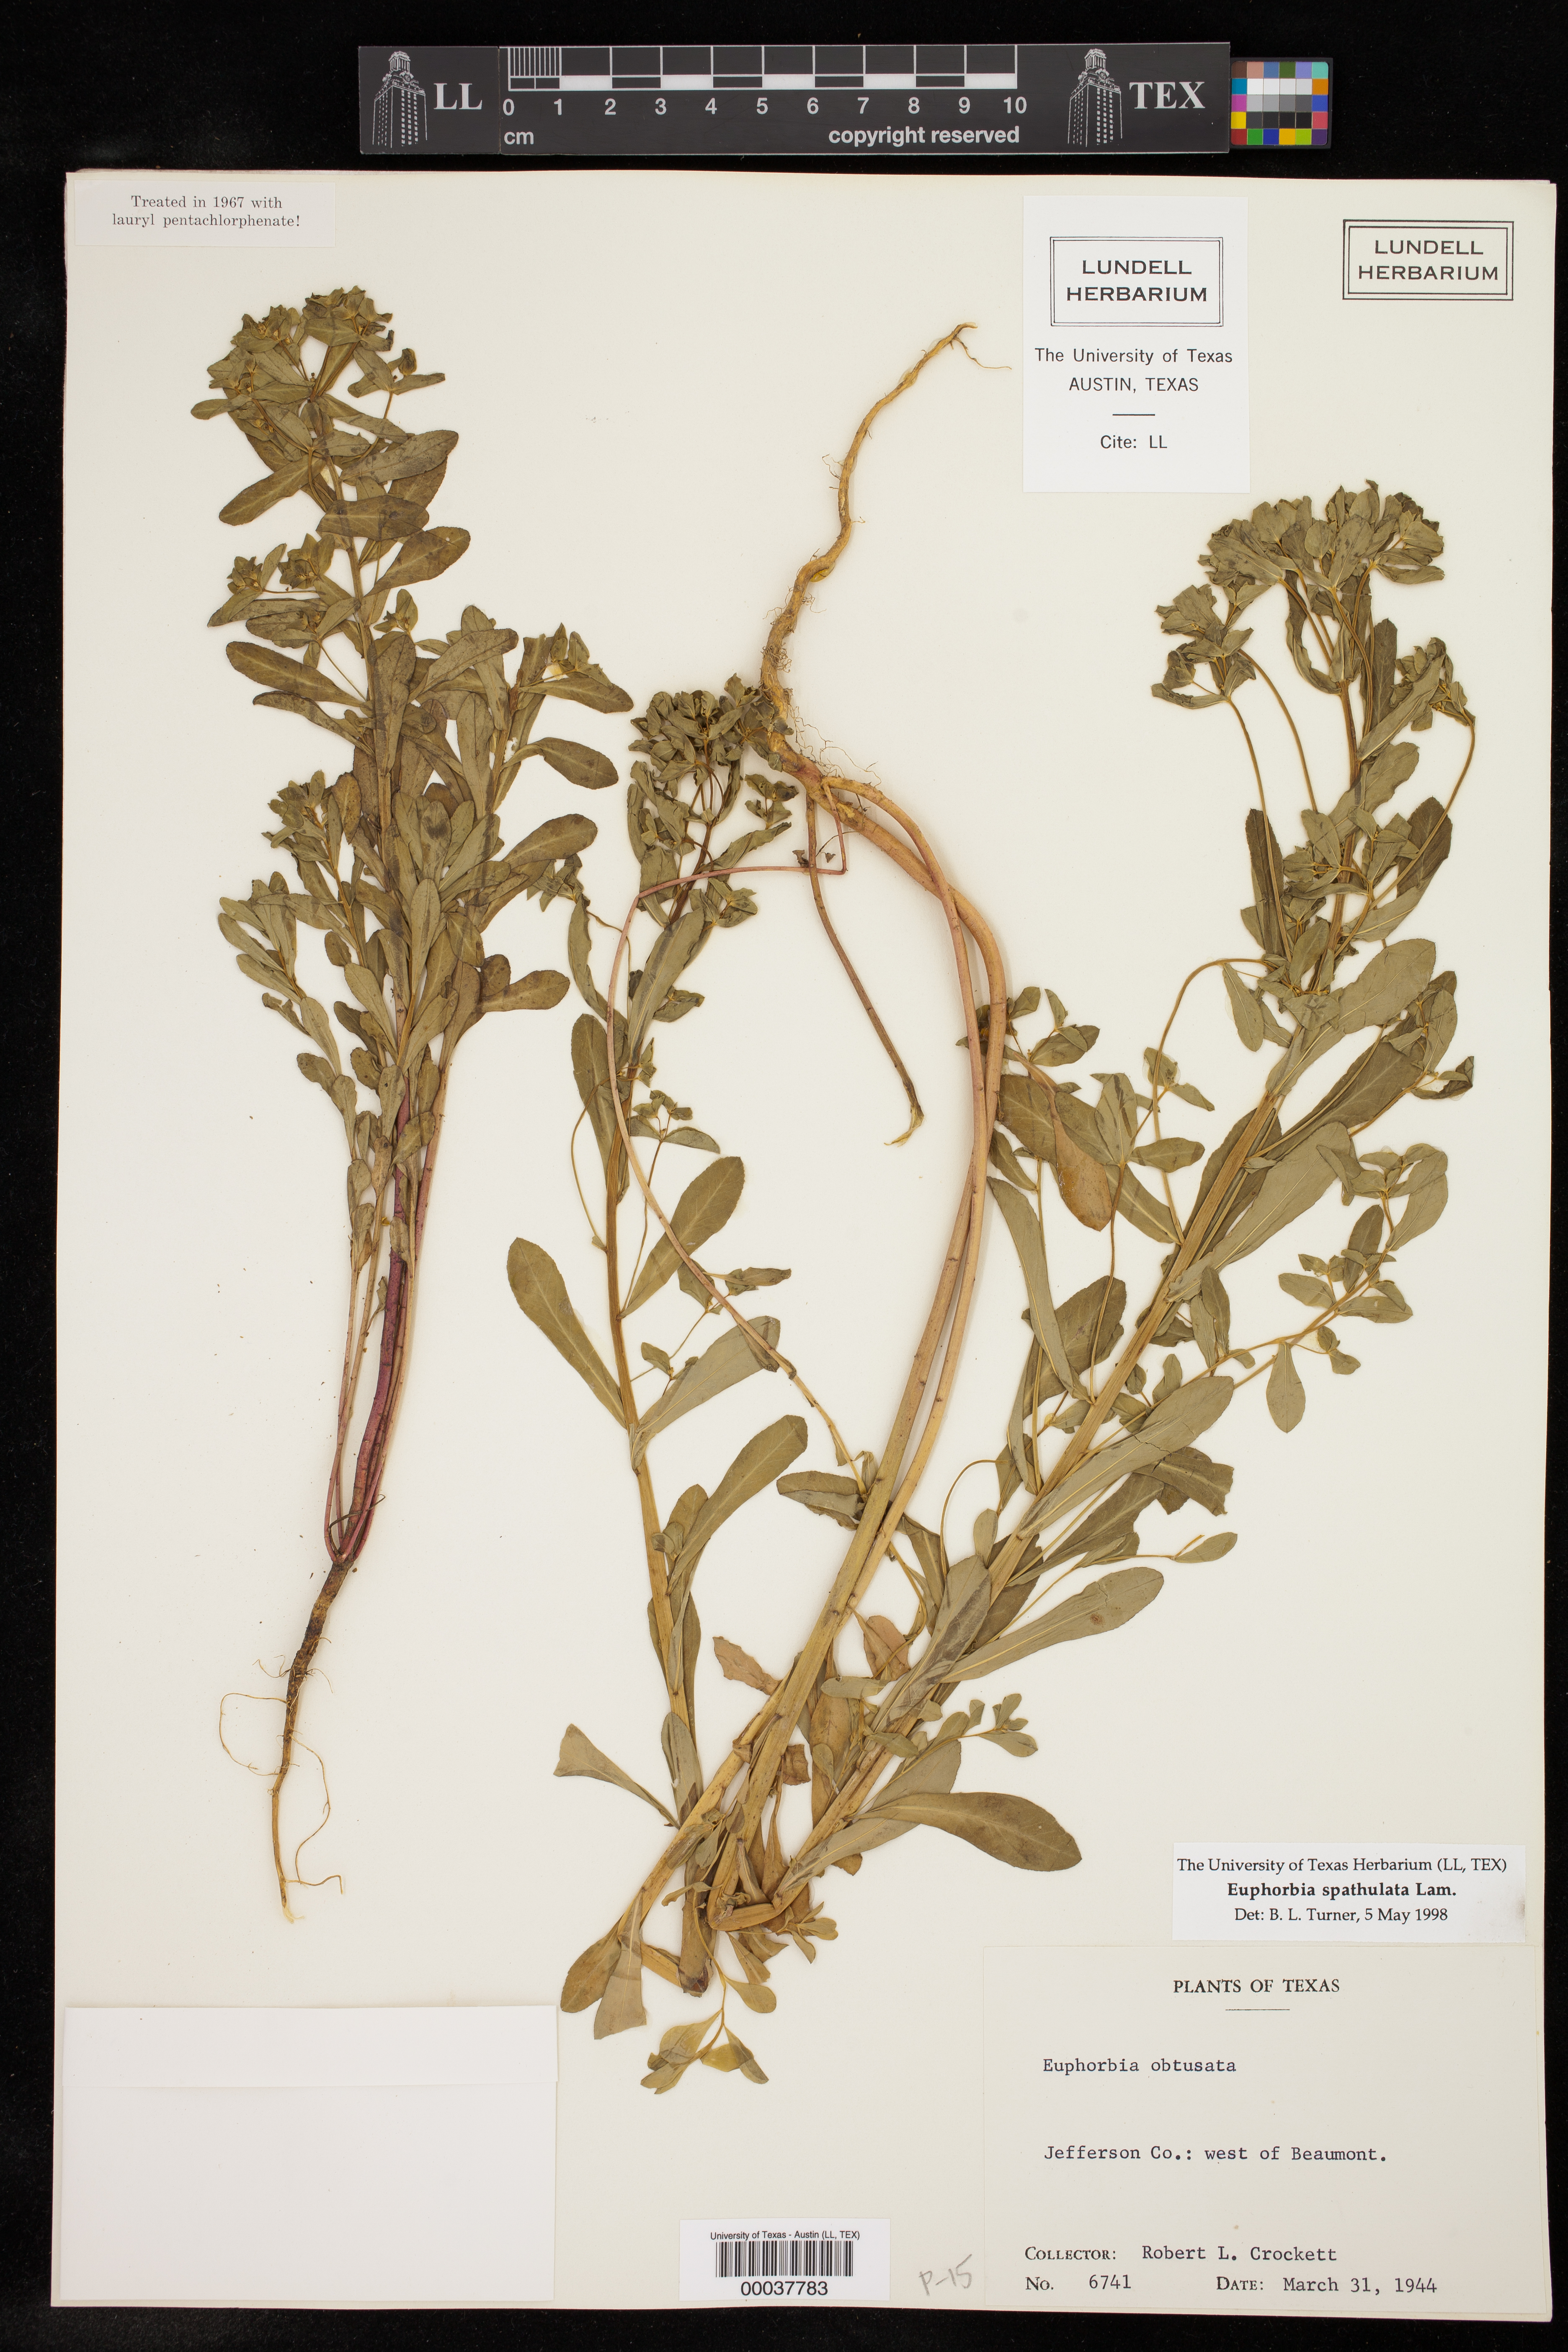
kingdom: Plantae
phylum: Tracheophyta
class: Magnoliopsida
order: Malpighiales
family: Euphorbiaceae
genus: Euphorbia
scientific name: Euphorbia spathulata
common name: Blunt spurge
